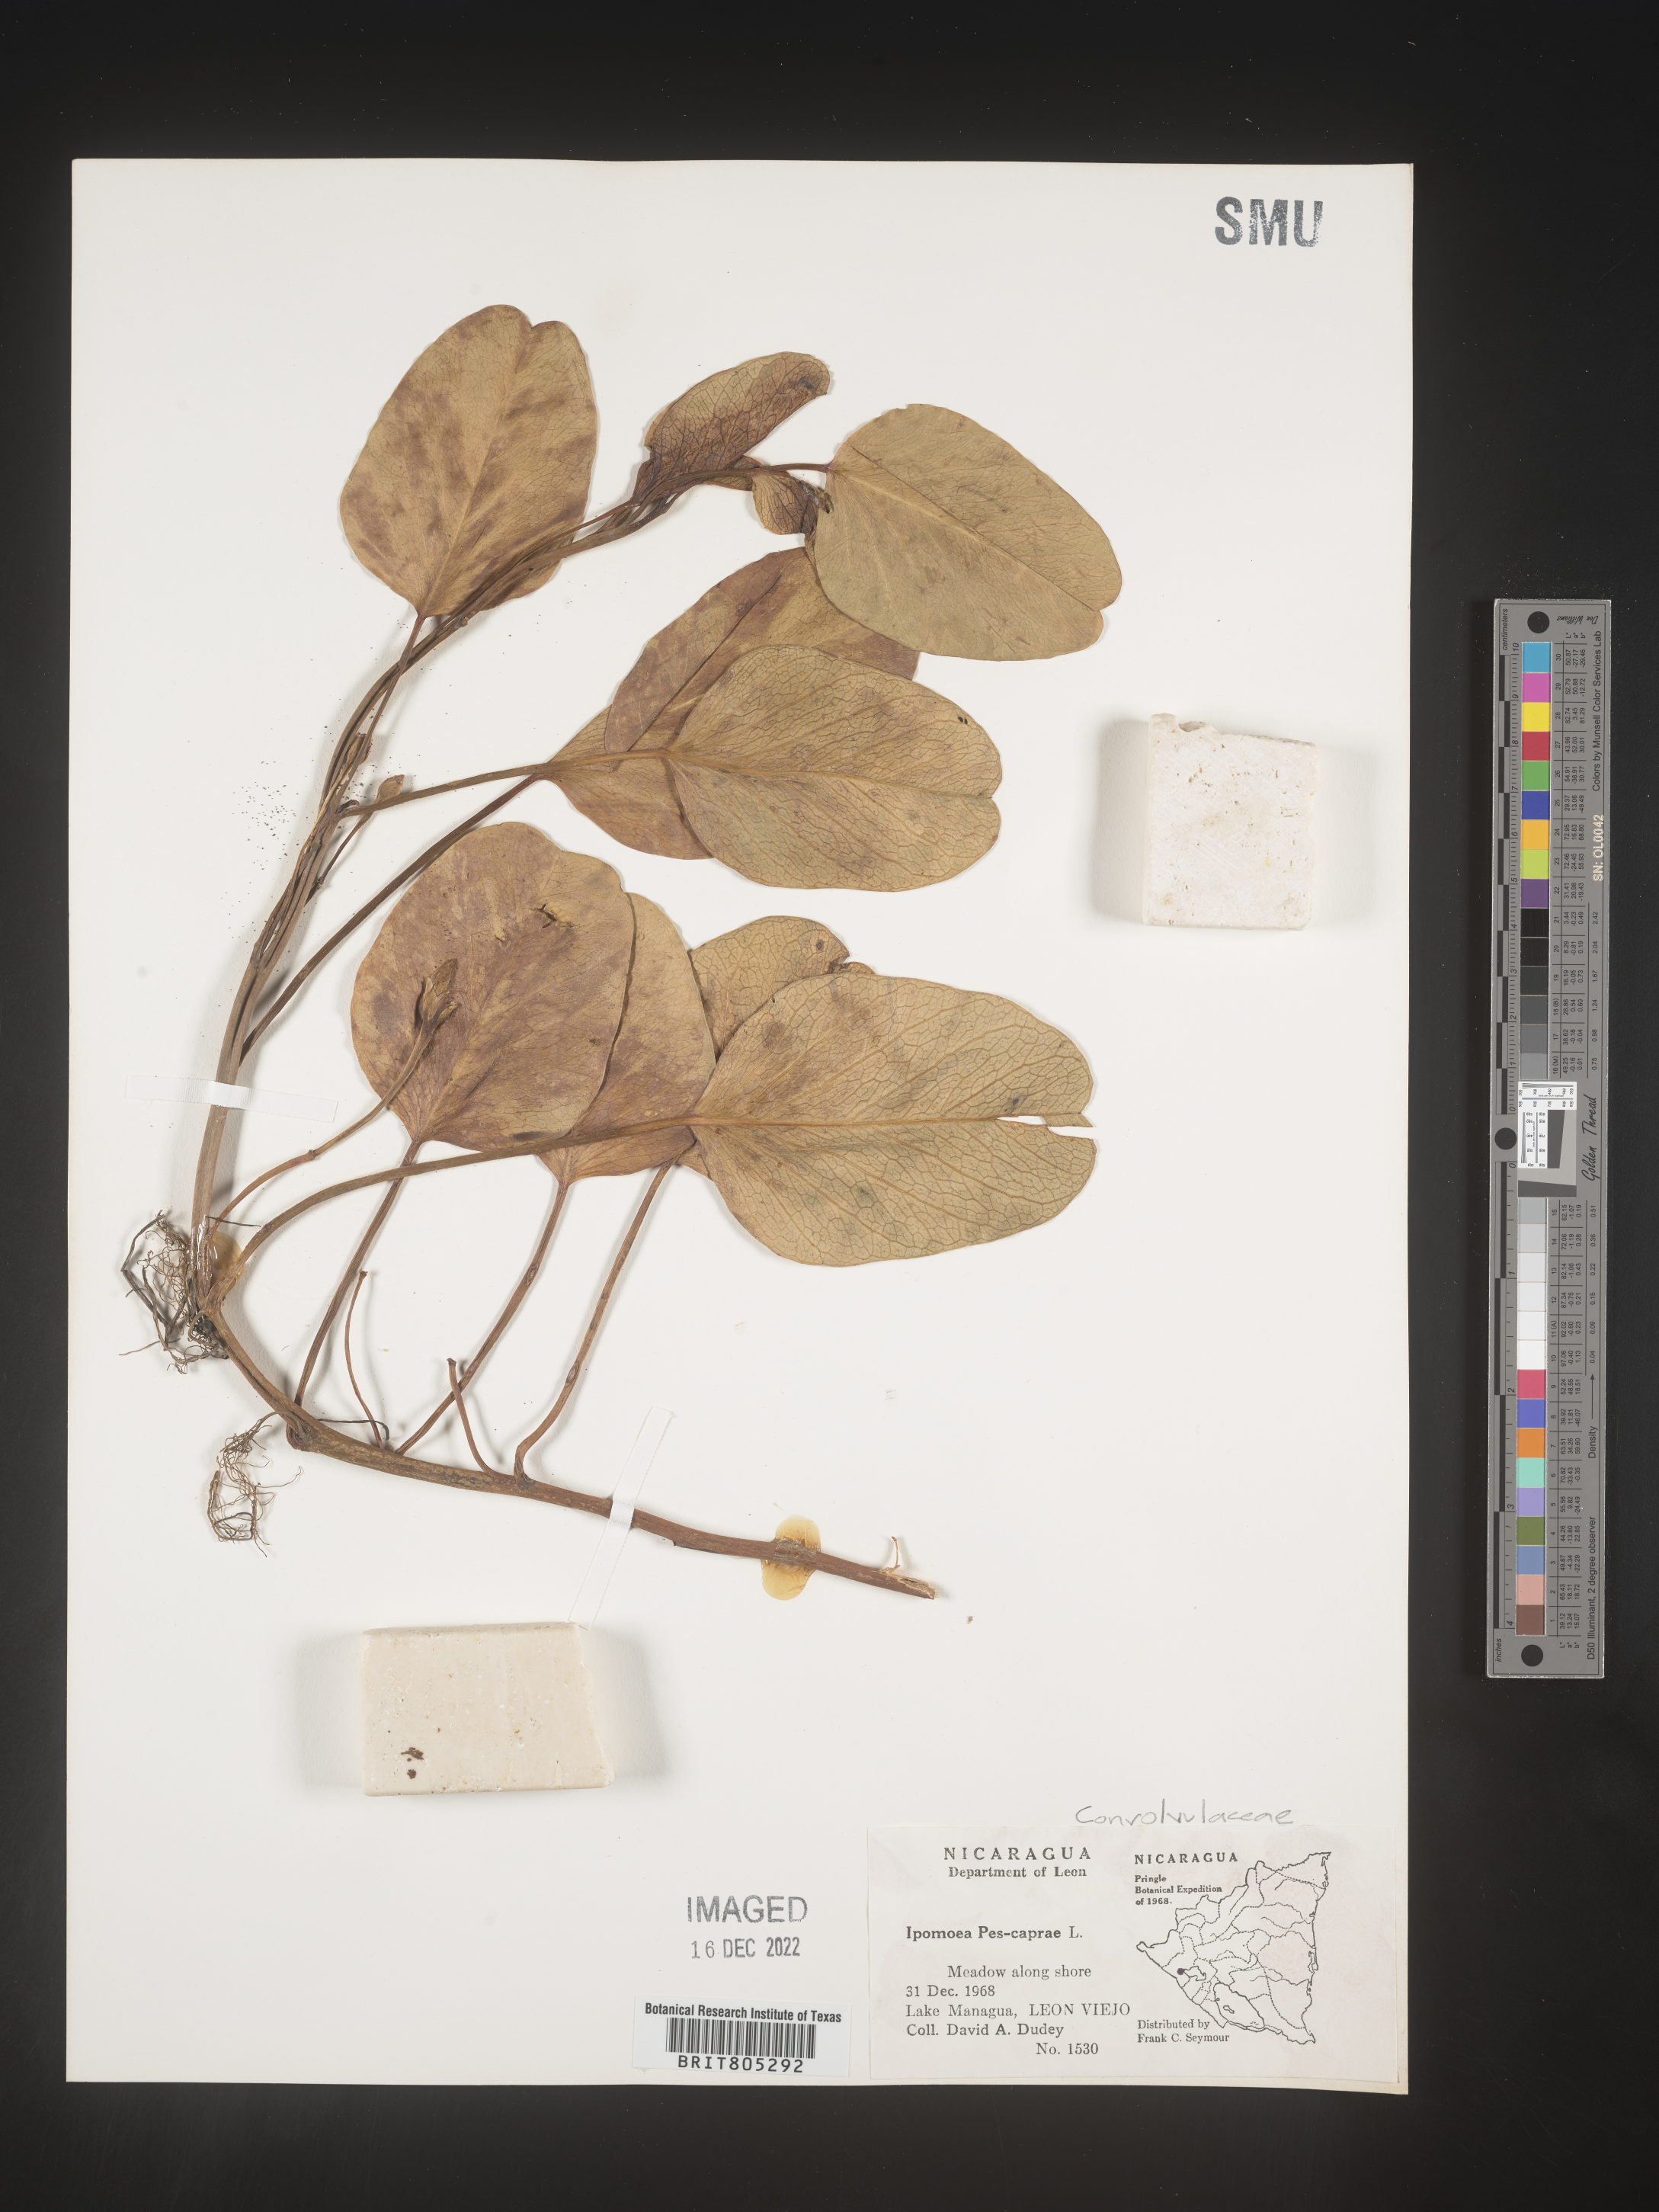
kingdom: Plantae
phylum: Tracheophyta
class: Magnoliopsida
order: Solanales
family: Convolvulaceae
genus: Ipomoea
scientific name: Ipomoea
